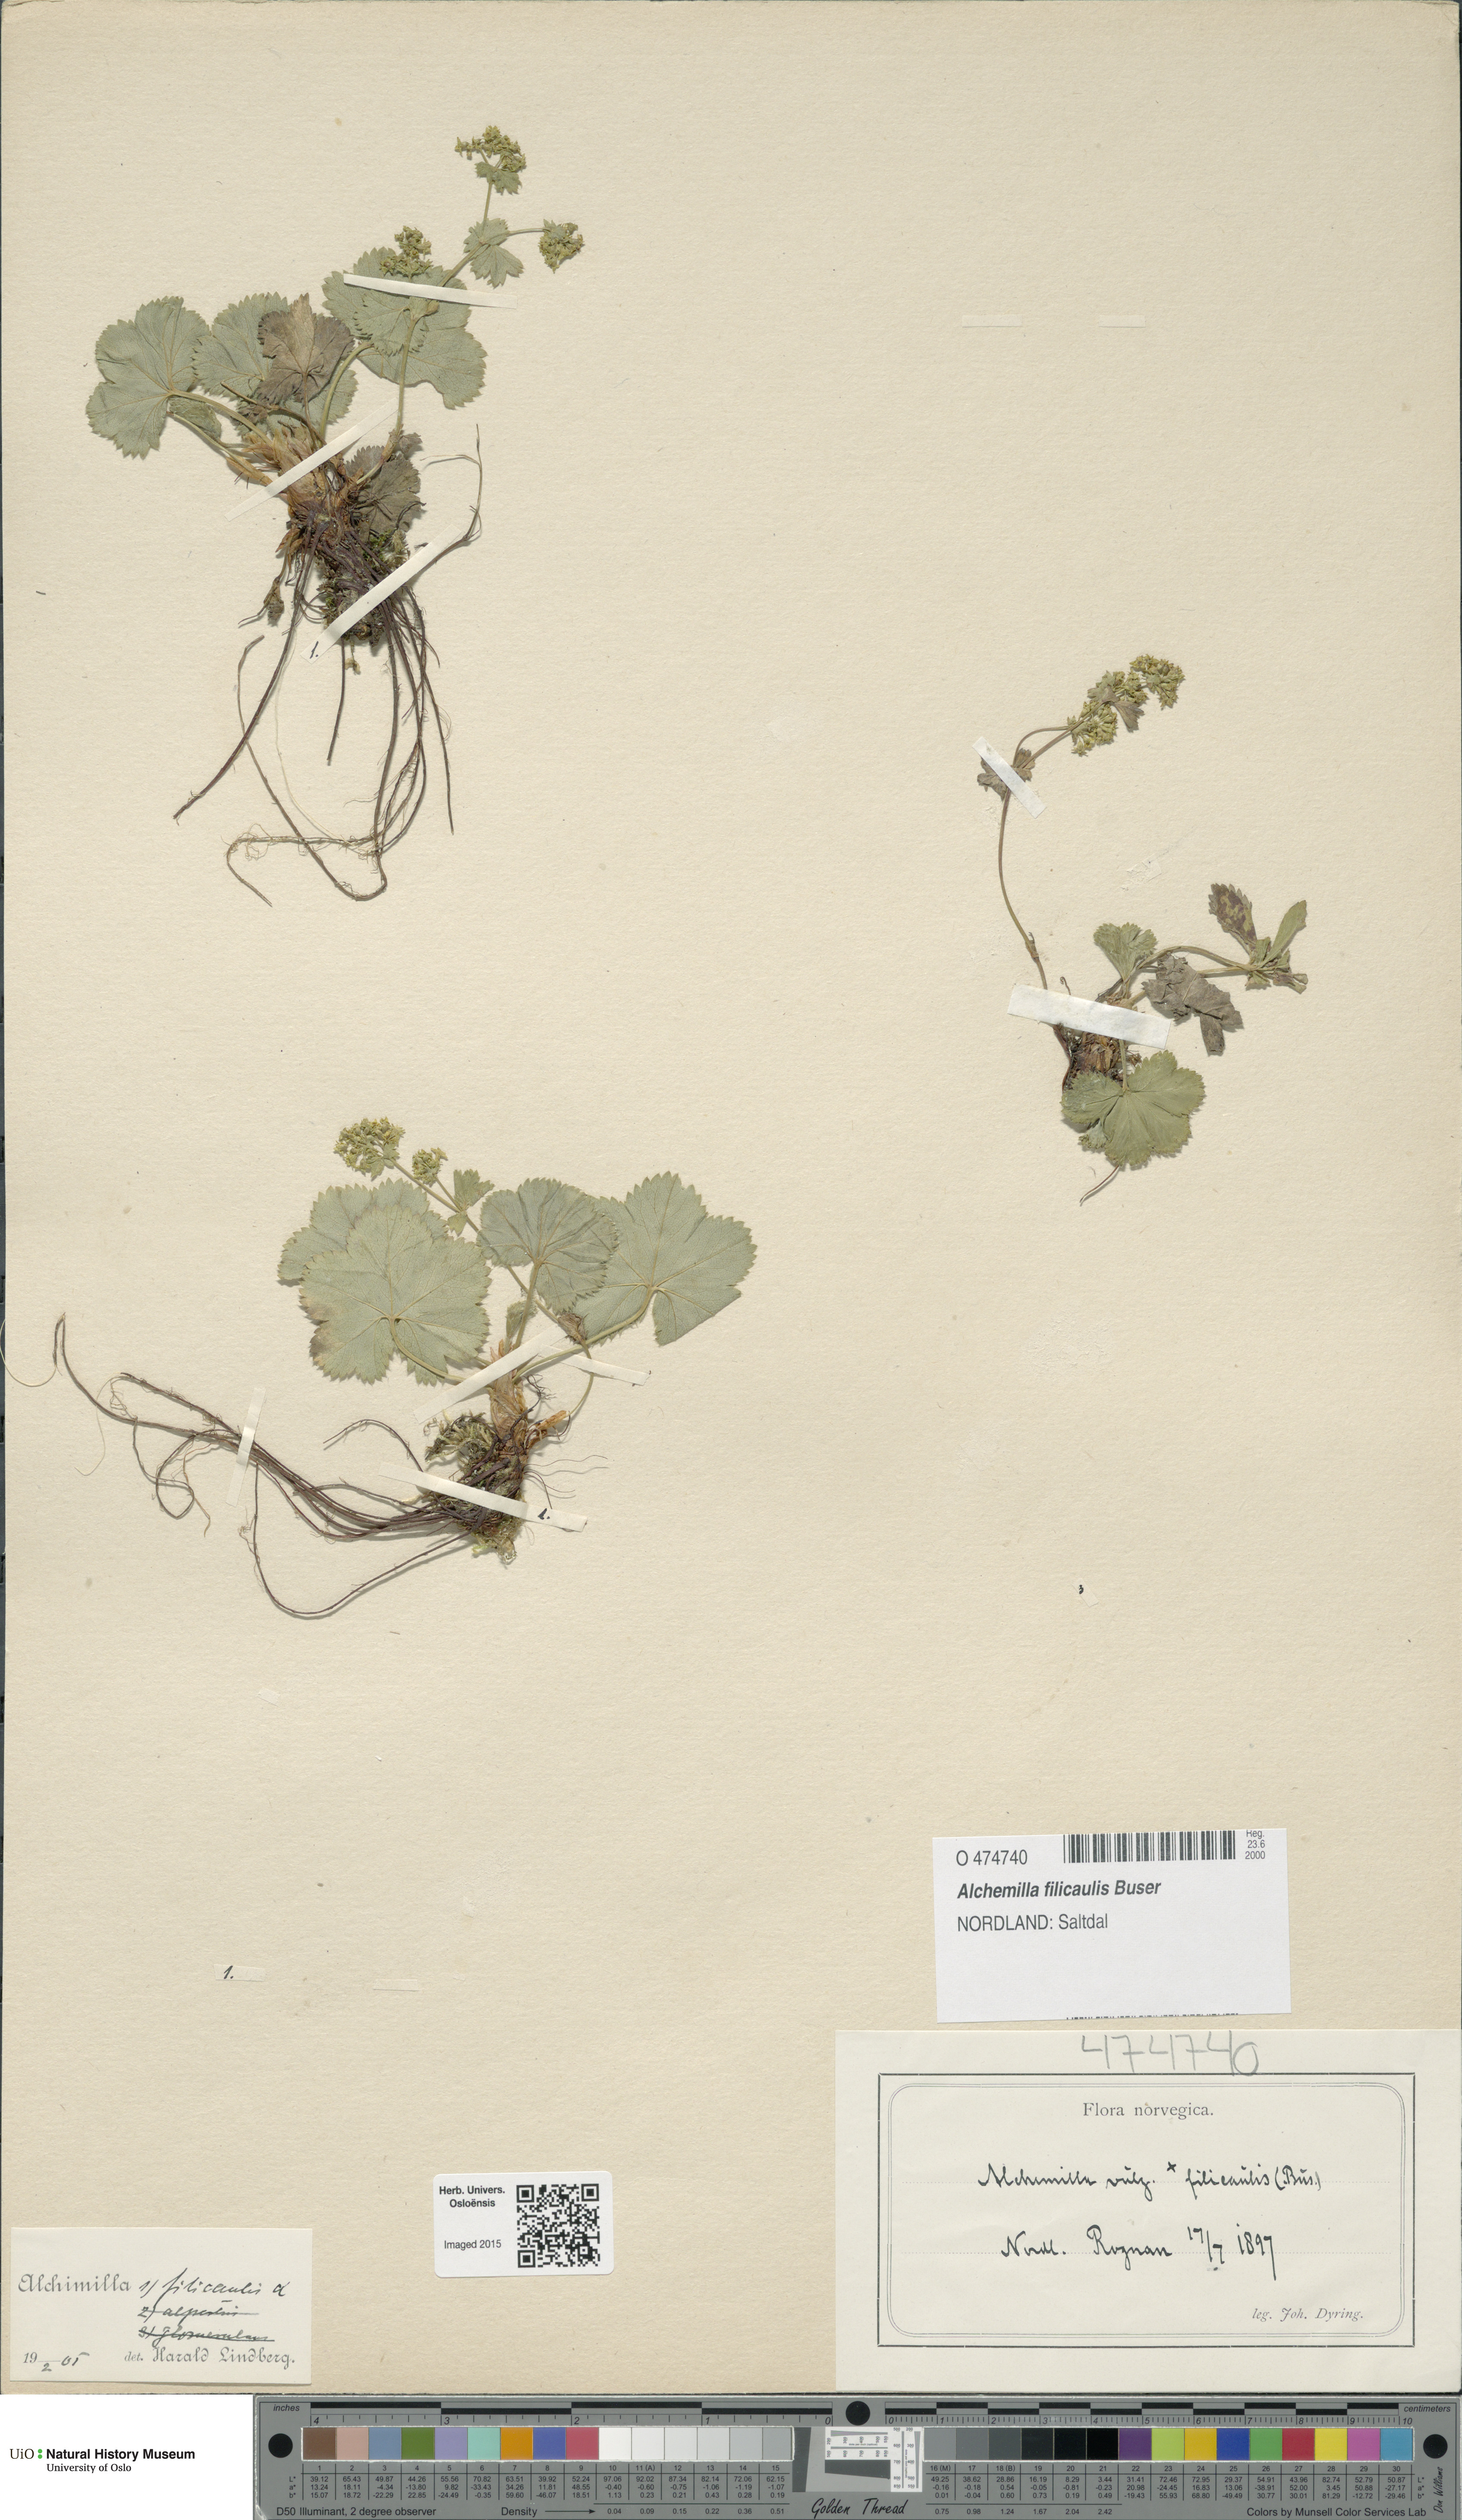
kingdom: Plantae
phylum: Tracheophyta
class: Magnoliopsida
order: Rosales
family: Rosaceae
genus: Alchemilla
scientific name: Alchemilla filicaulis
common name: Hairy lady's-mantle
